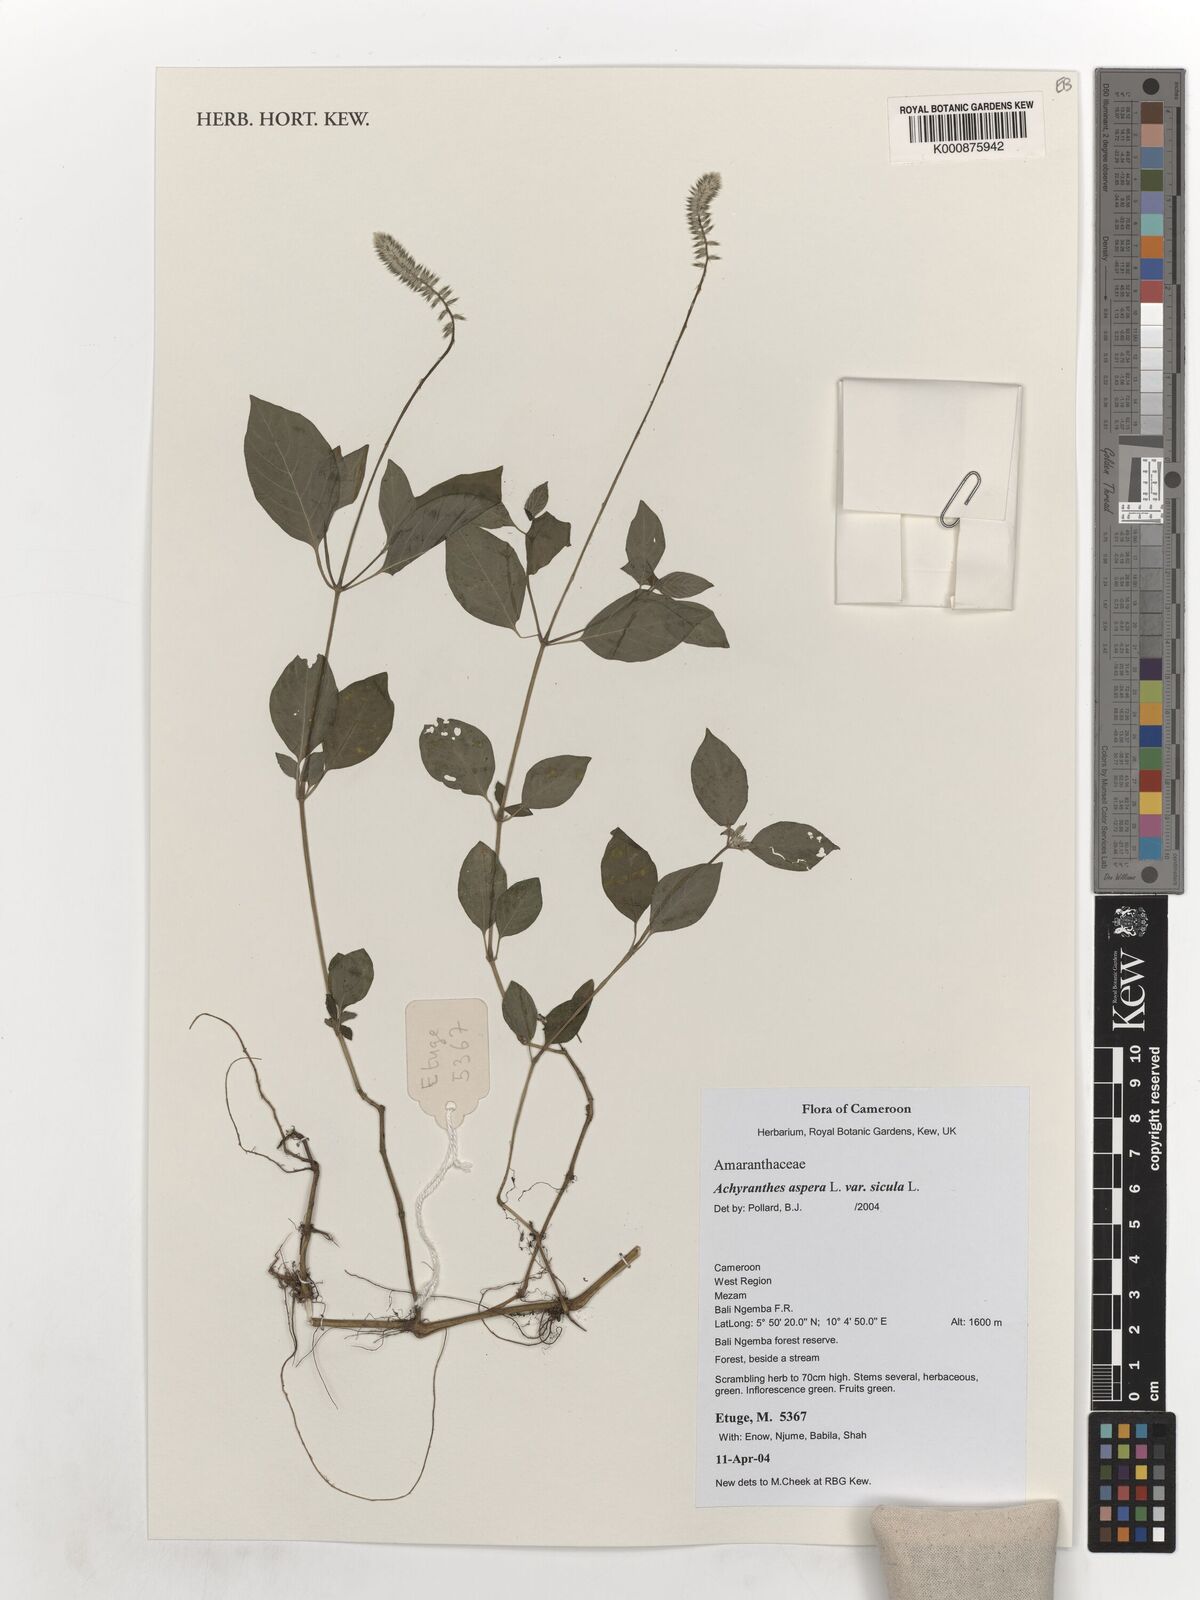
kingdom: Plantae
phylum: Tracheophyta
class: Magnoliopsida
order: Caryophyllales
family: Amaranthaceae
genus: Achyranthes
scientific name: Achyranthes sicula
